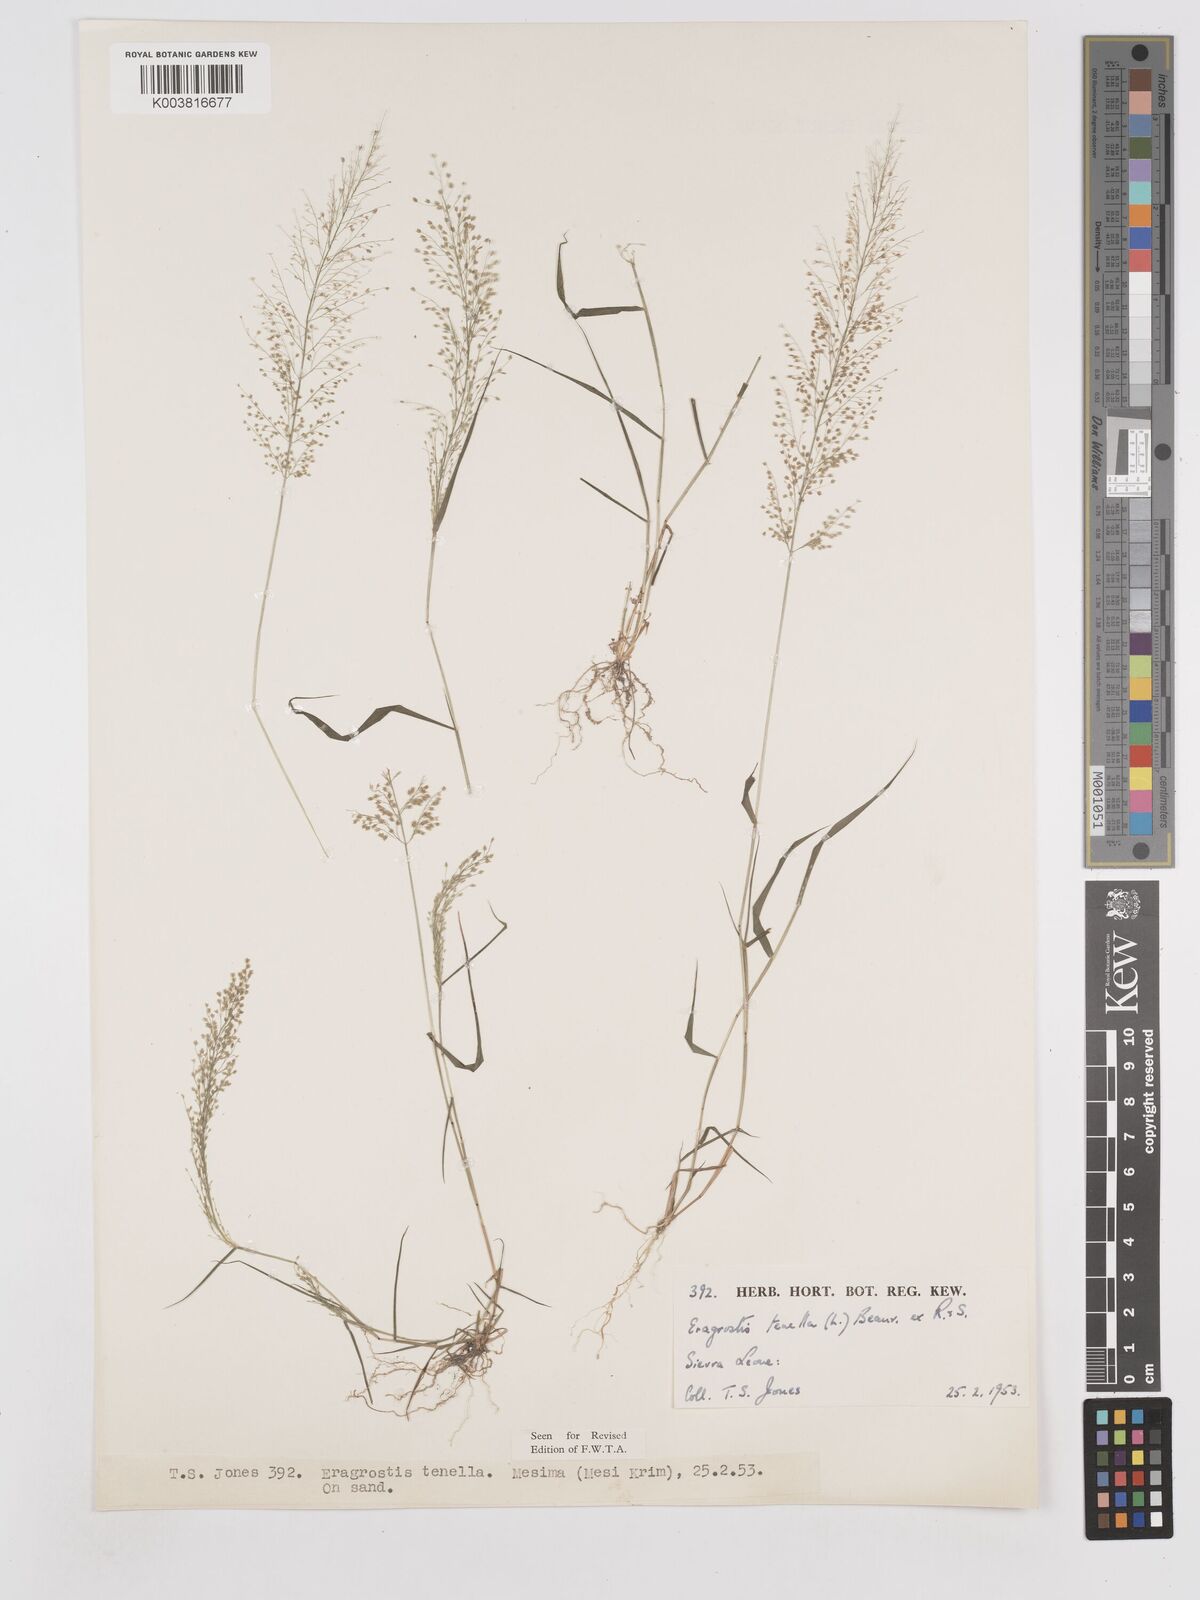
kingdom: Plantae
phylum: Tracheophyta
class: Liliopsida
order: Poales
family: Poaceae
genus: Eragrostis
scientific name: Eragrostis tenella
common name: Japanese lovegrass
